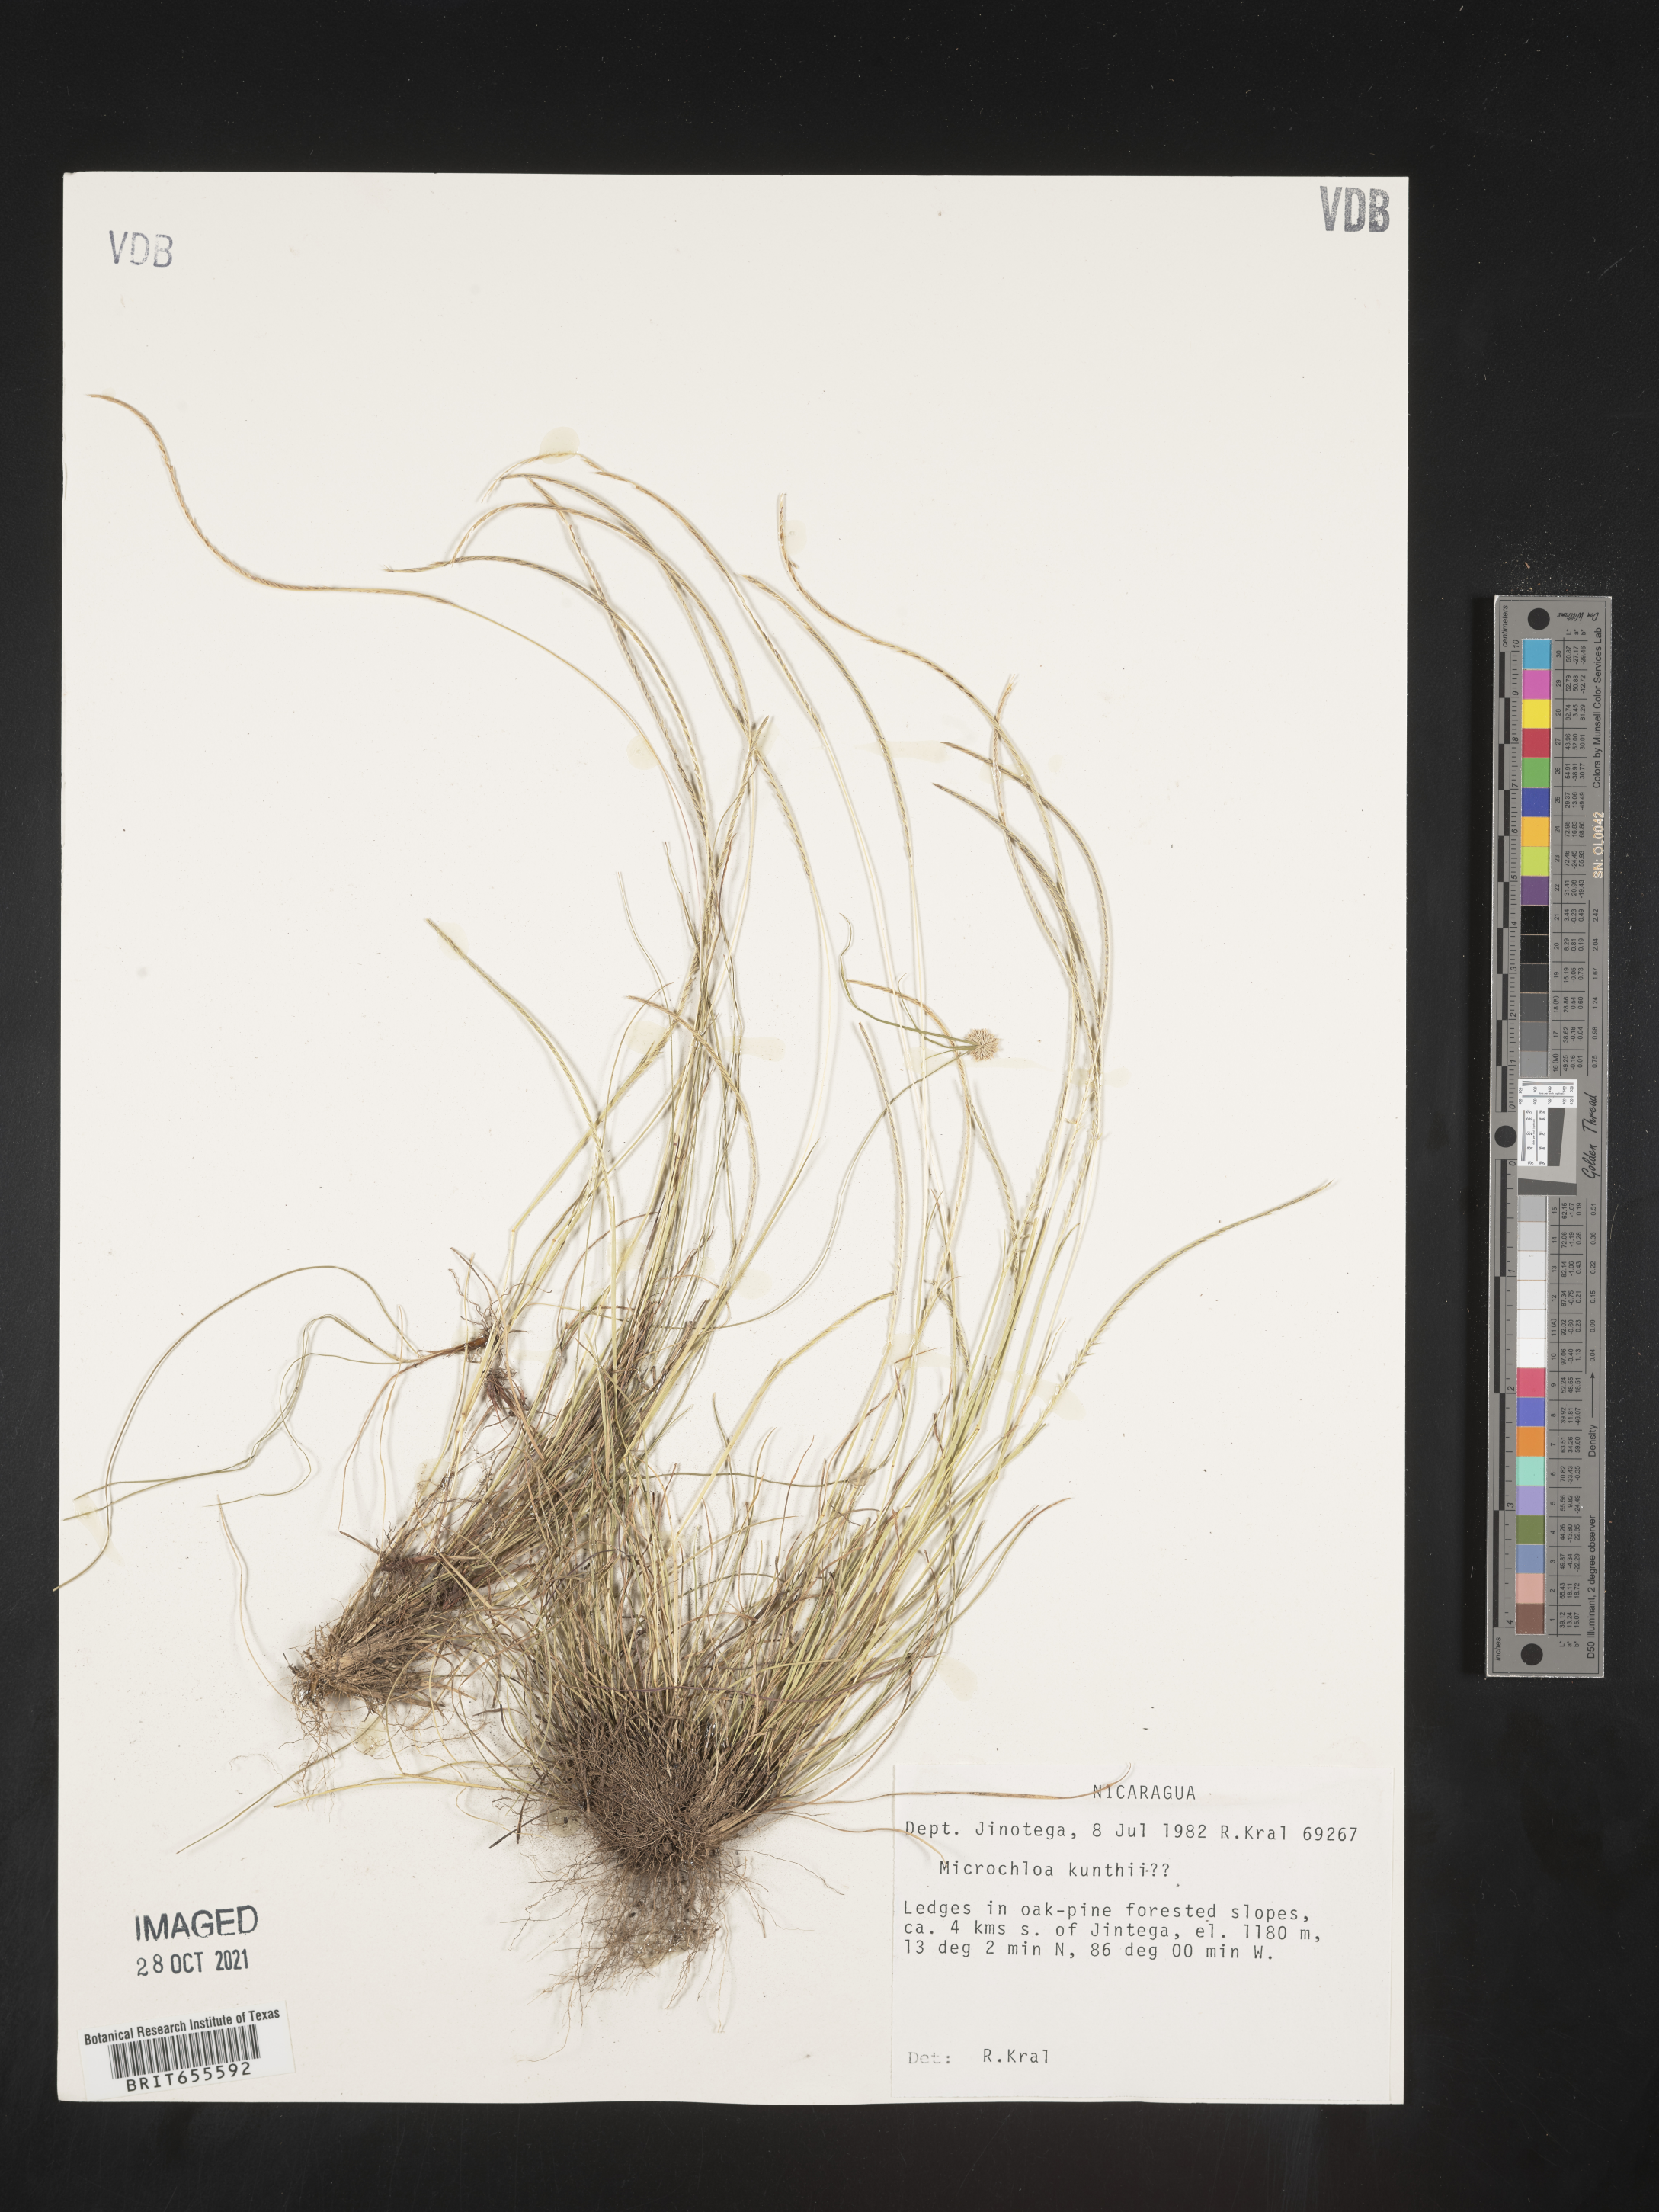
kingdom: Plantae
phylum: Tracheophyta
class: Liliopsida
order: Poales
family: Poaceae
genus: Microchloa
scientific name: Microchloa
